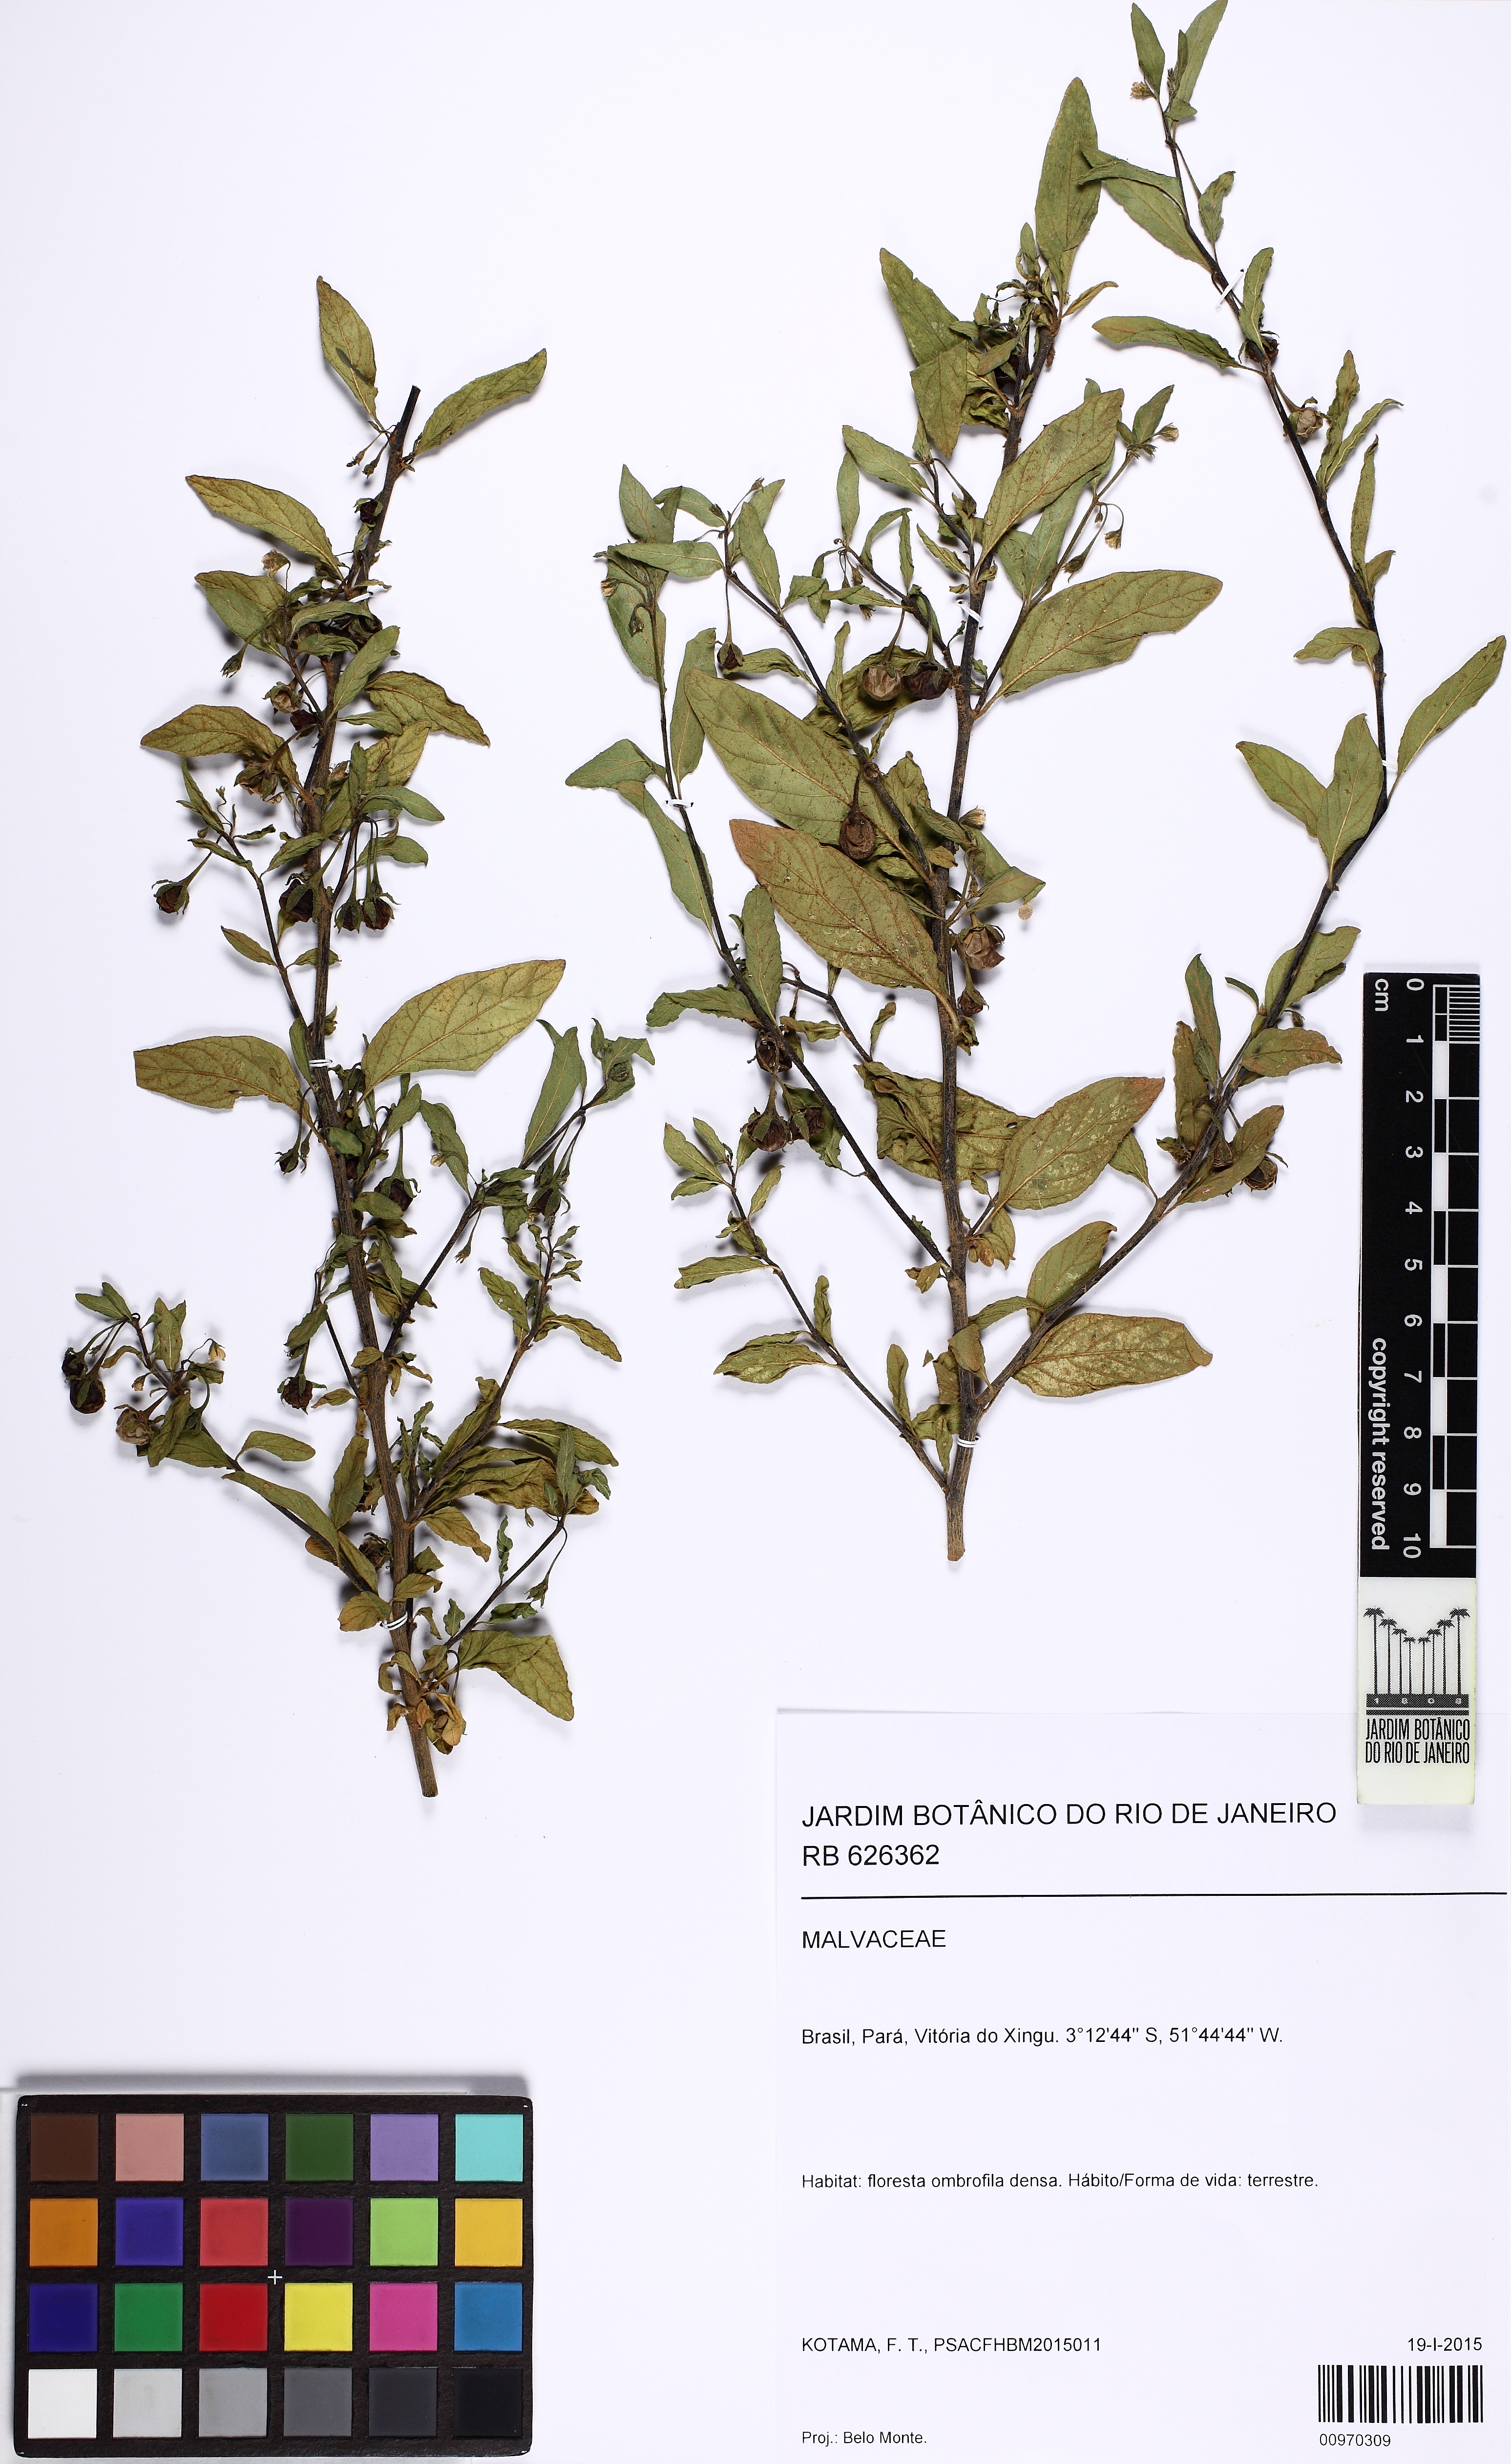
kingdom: Plantae
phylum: Tracheophyta
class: Magnoliopsida
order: Solanales
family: Solanaceae
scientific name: Solanaceae
